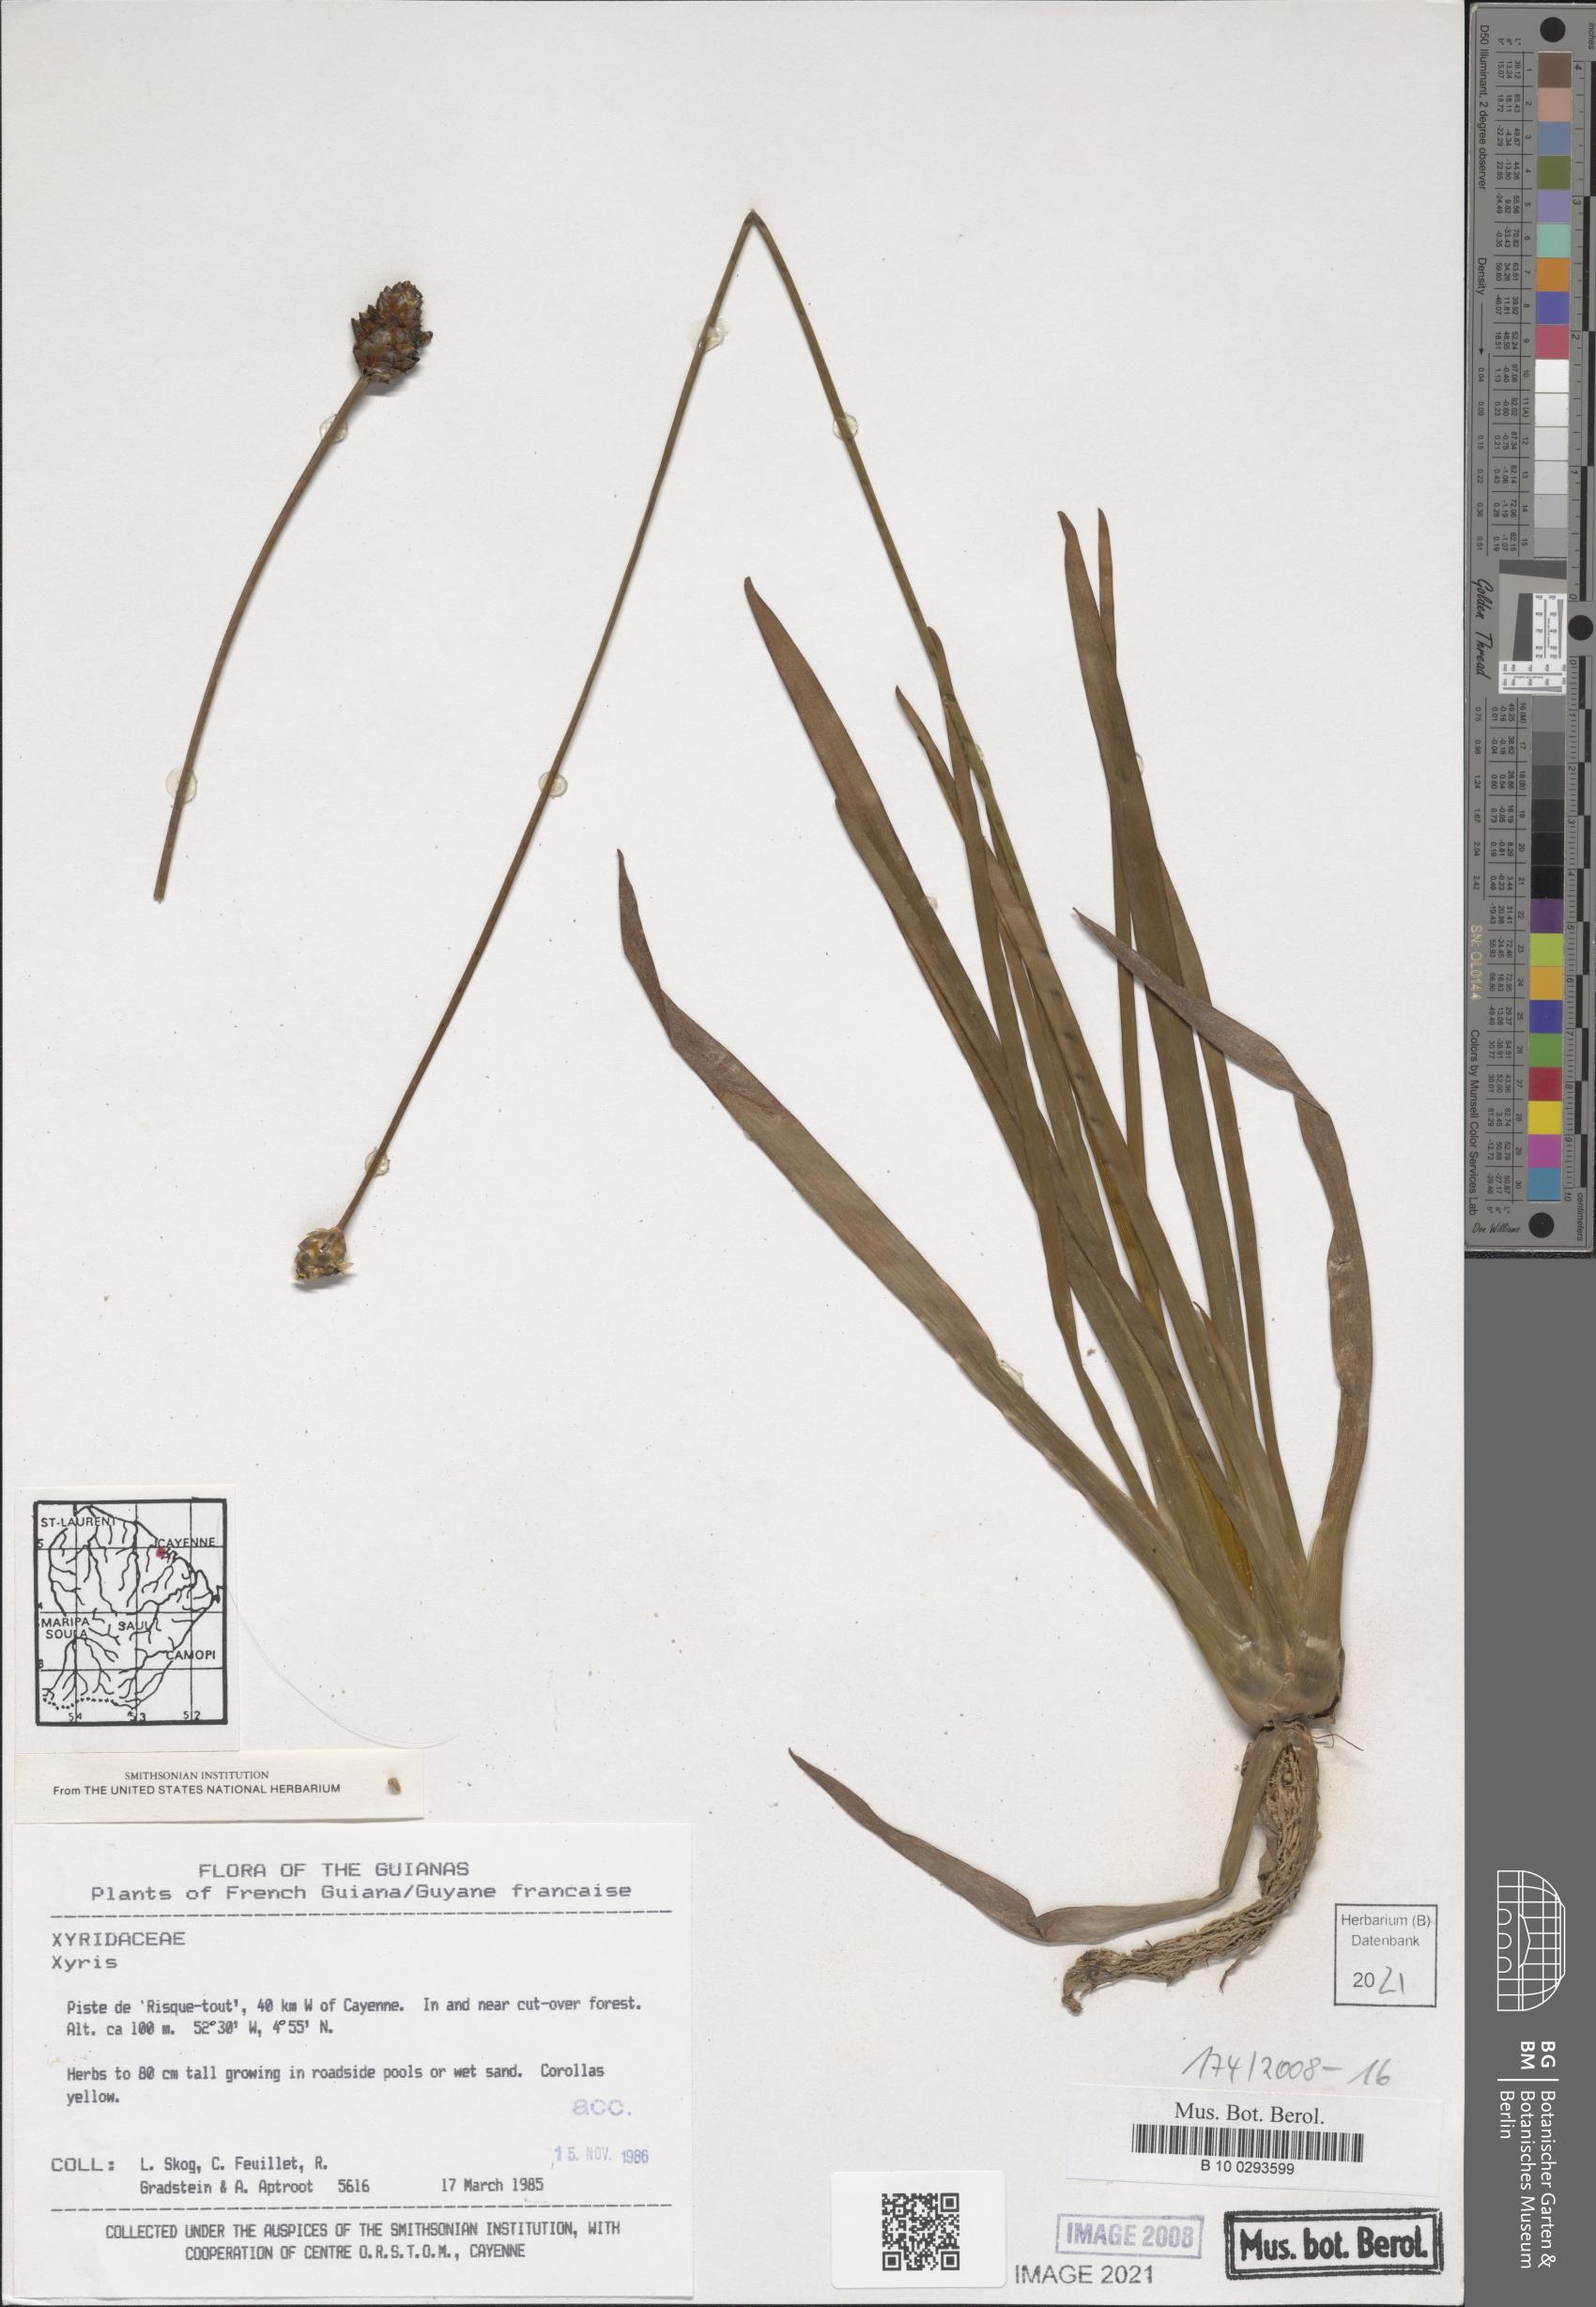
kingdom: Plantae
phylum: Tracheophyta
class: Liliopsida
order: Poales
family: Xyridaceae
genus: Xyris
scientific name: Xyris
